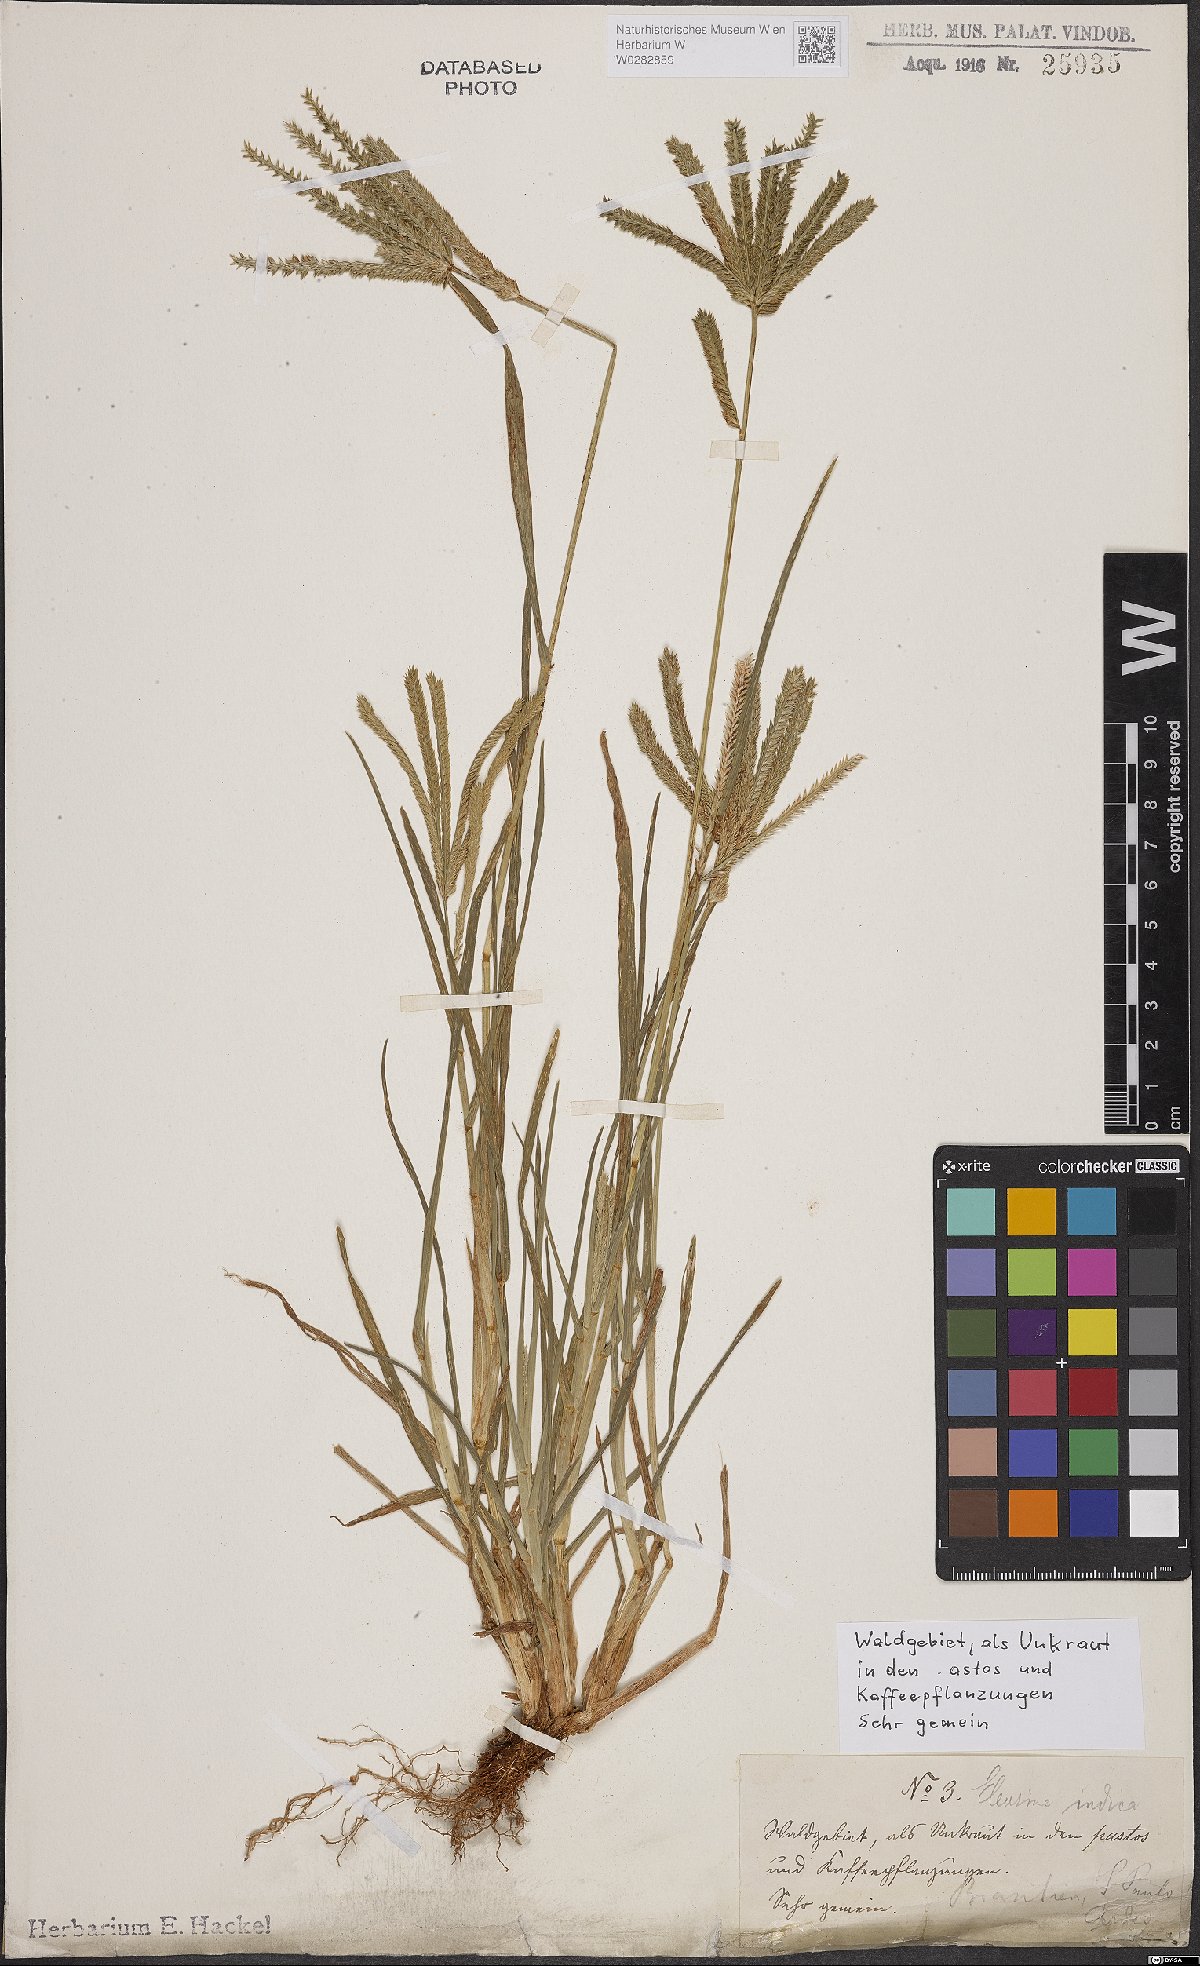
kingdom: Plantae
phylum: Tracheophyta
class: Liliopsida
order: Poales
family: Poaceae
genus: Eleusine
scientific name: Eleusine indica
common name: Yard-grass
